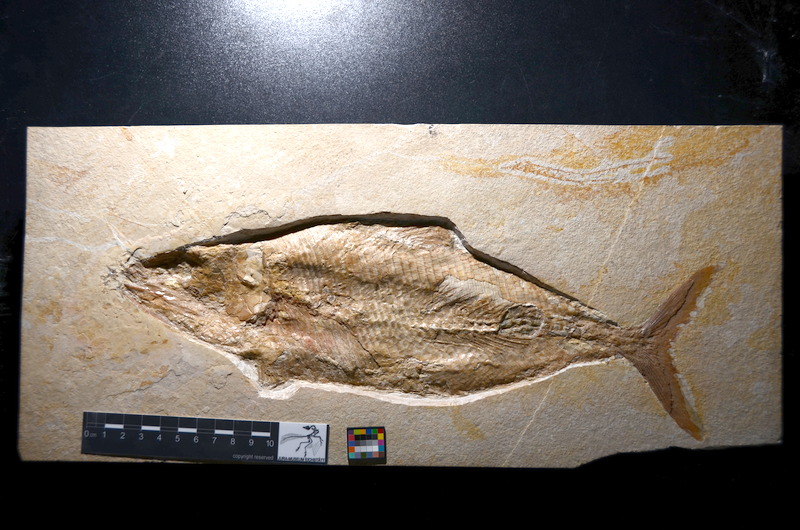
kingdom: Animalia
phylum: Chordata
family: Ankylophoridae
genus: Siemensichthys
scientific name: Siemensichthys macrocephalus
